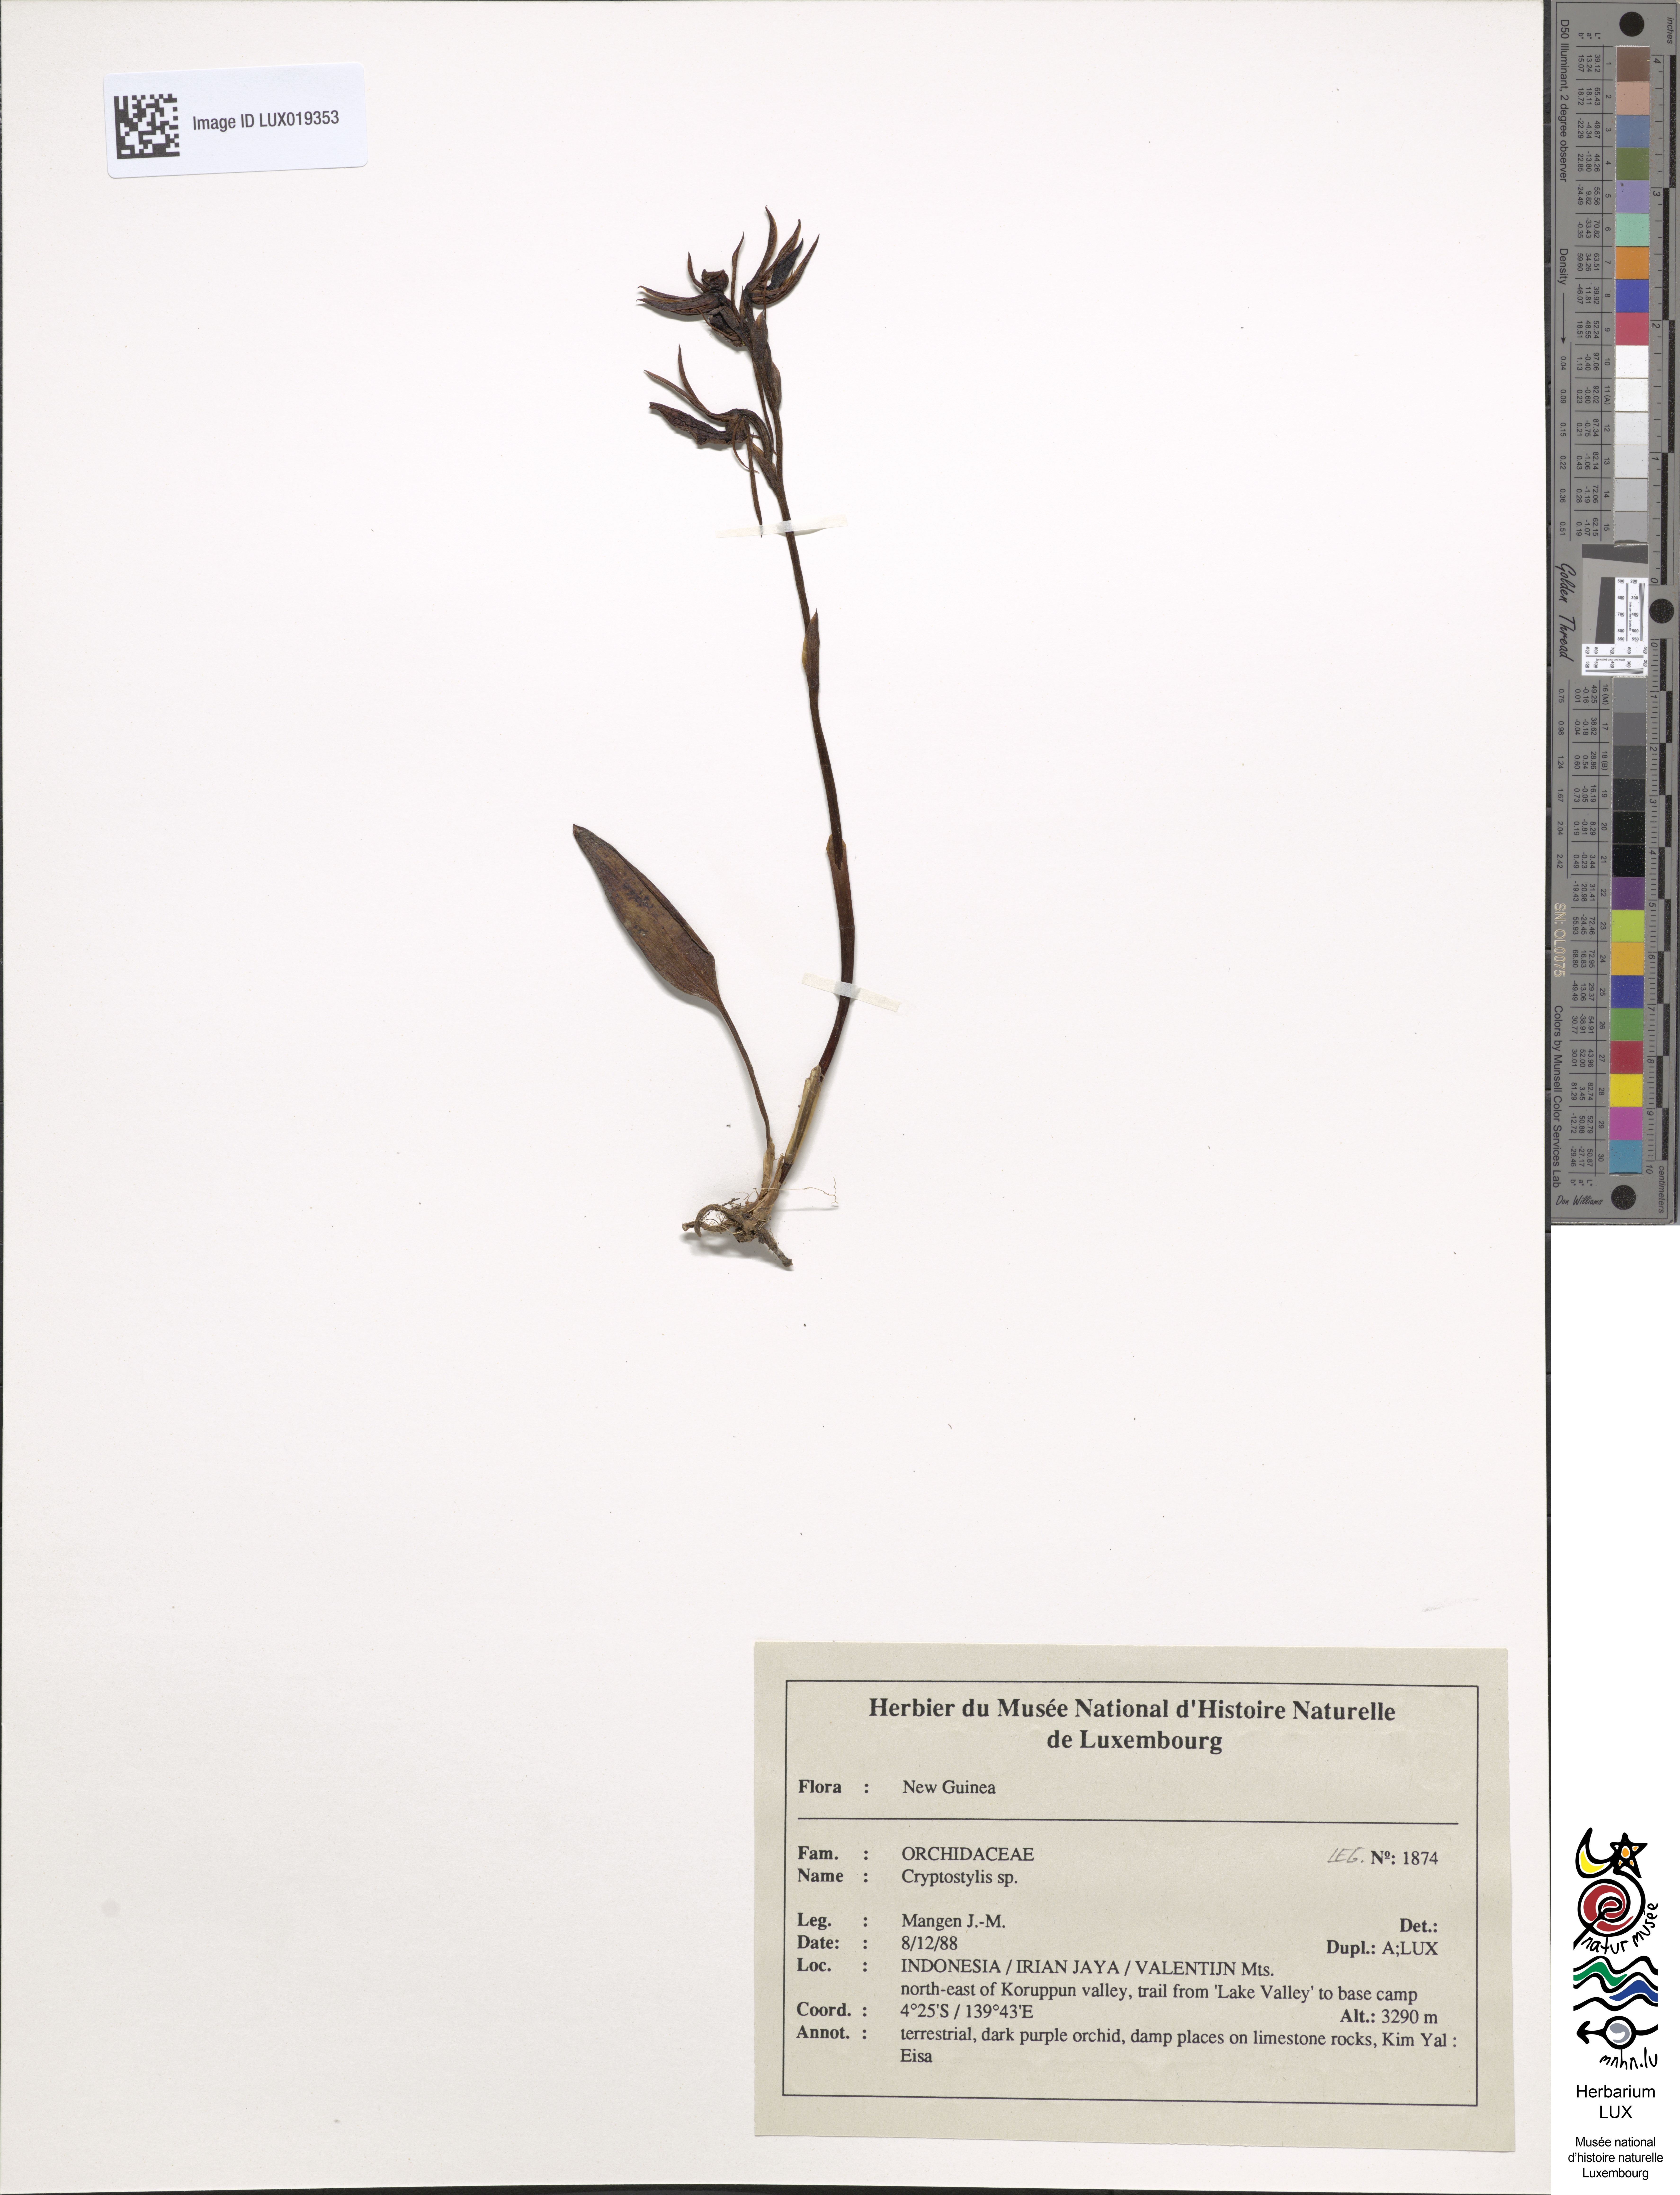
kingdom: Plantae
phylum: Tracheophyta
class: Liliopsida
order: Asparagales
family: Orchidaceae
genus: Cryptostylis
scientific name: Cryptostylis
